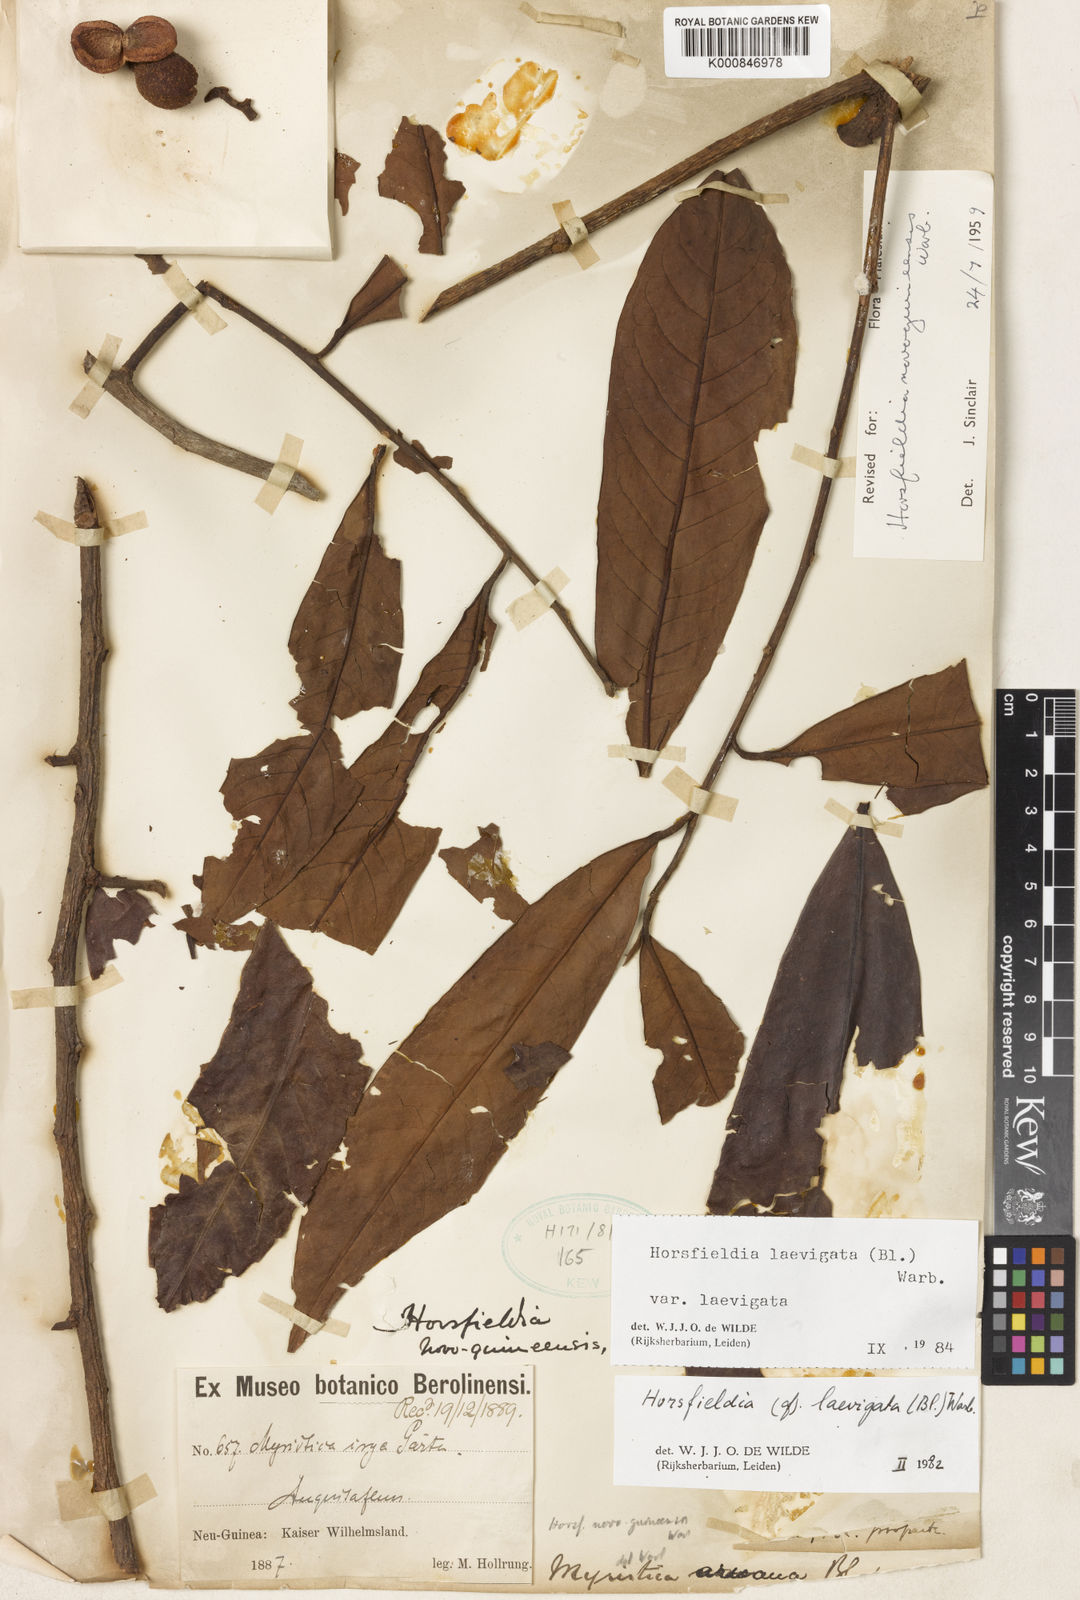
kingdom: Plantae
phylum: Tracheophyta
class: Magnoliopsida
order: Magnoliales
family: Myristicaceae
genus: Horsfieldia
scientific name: Horsfieldia laevigata
